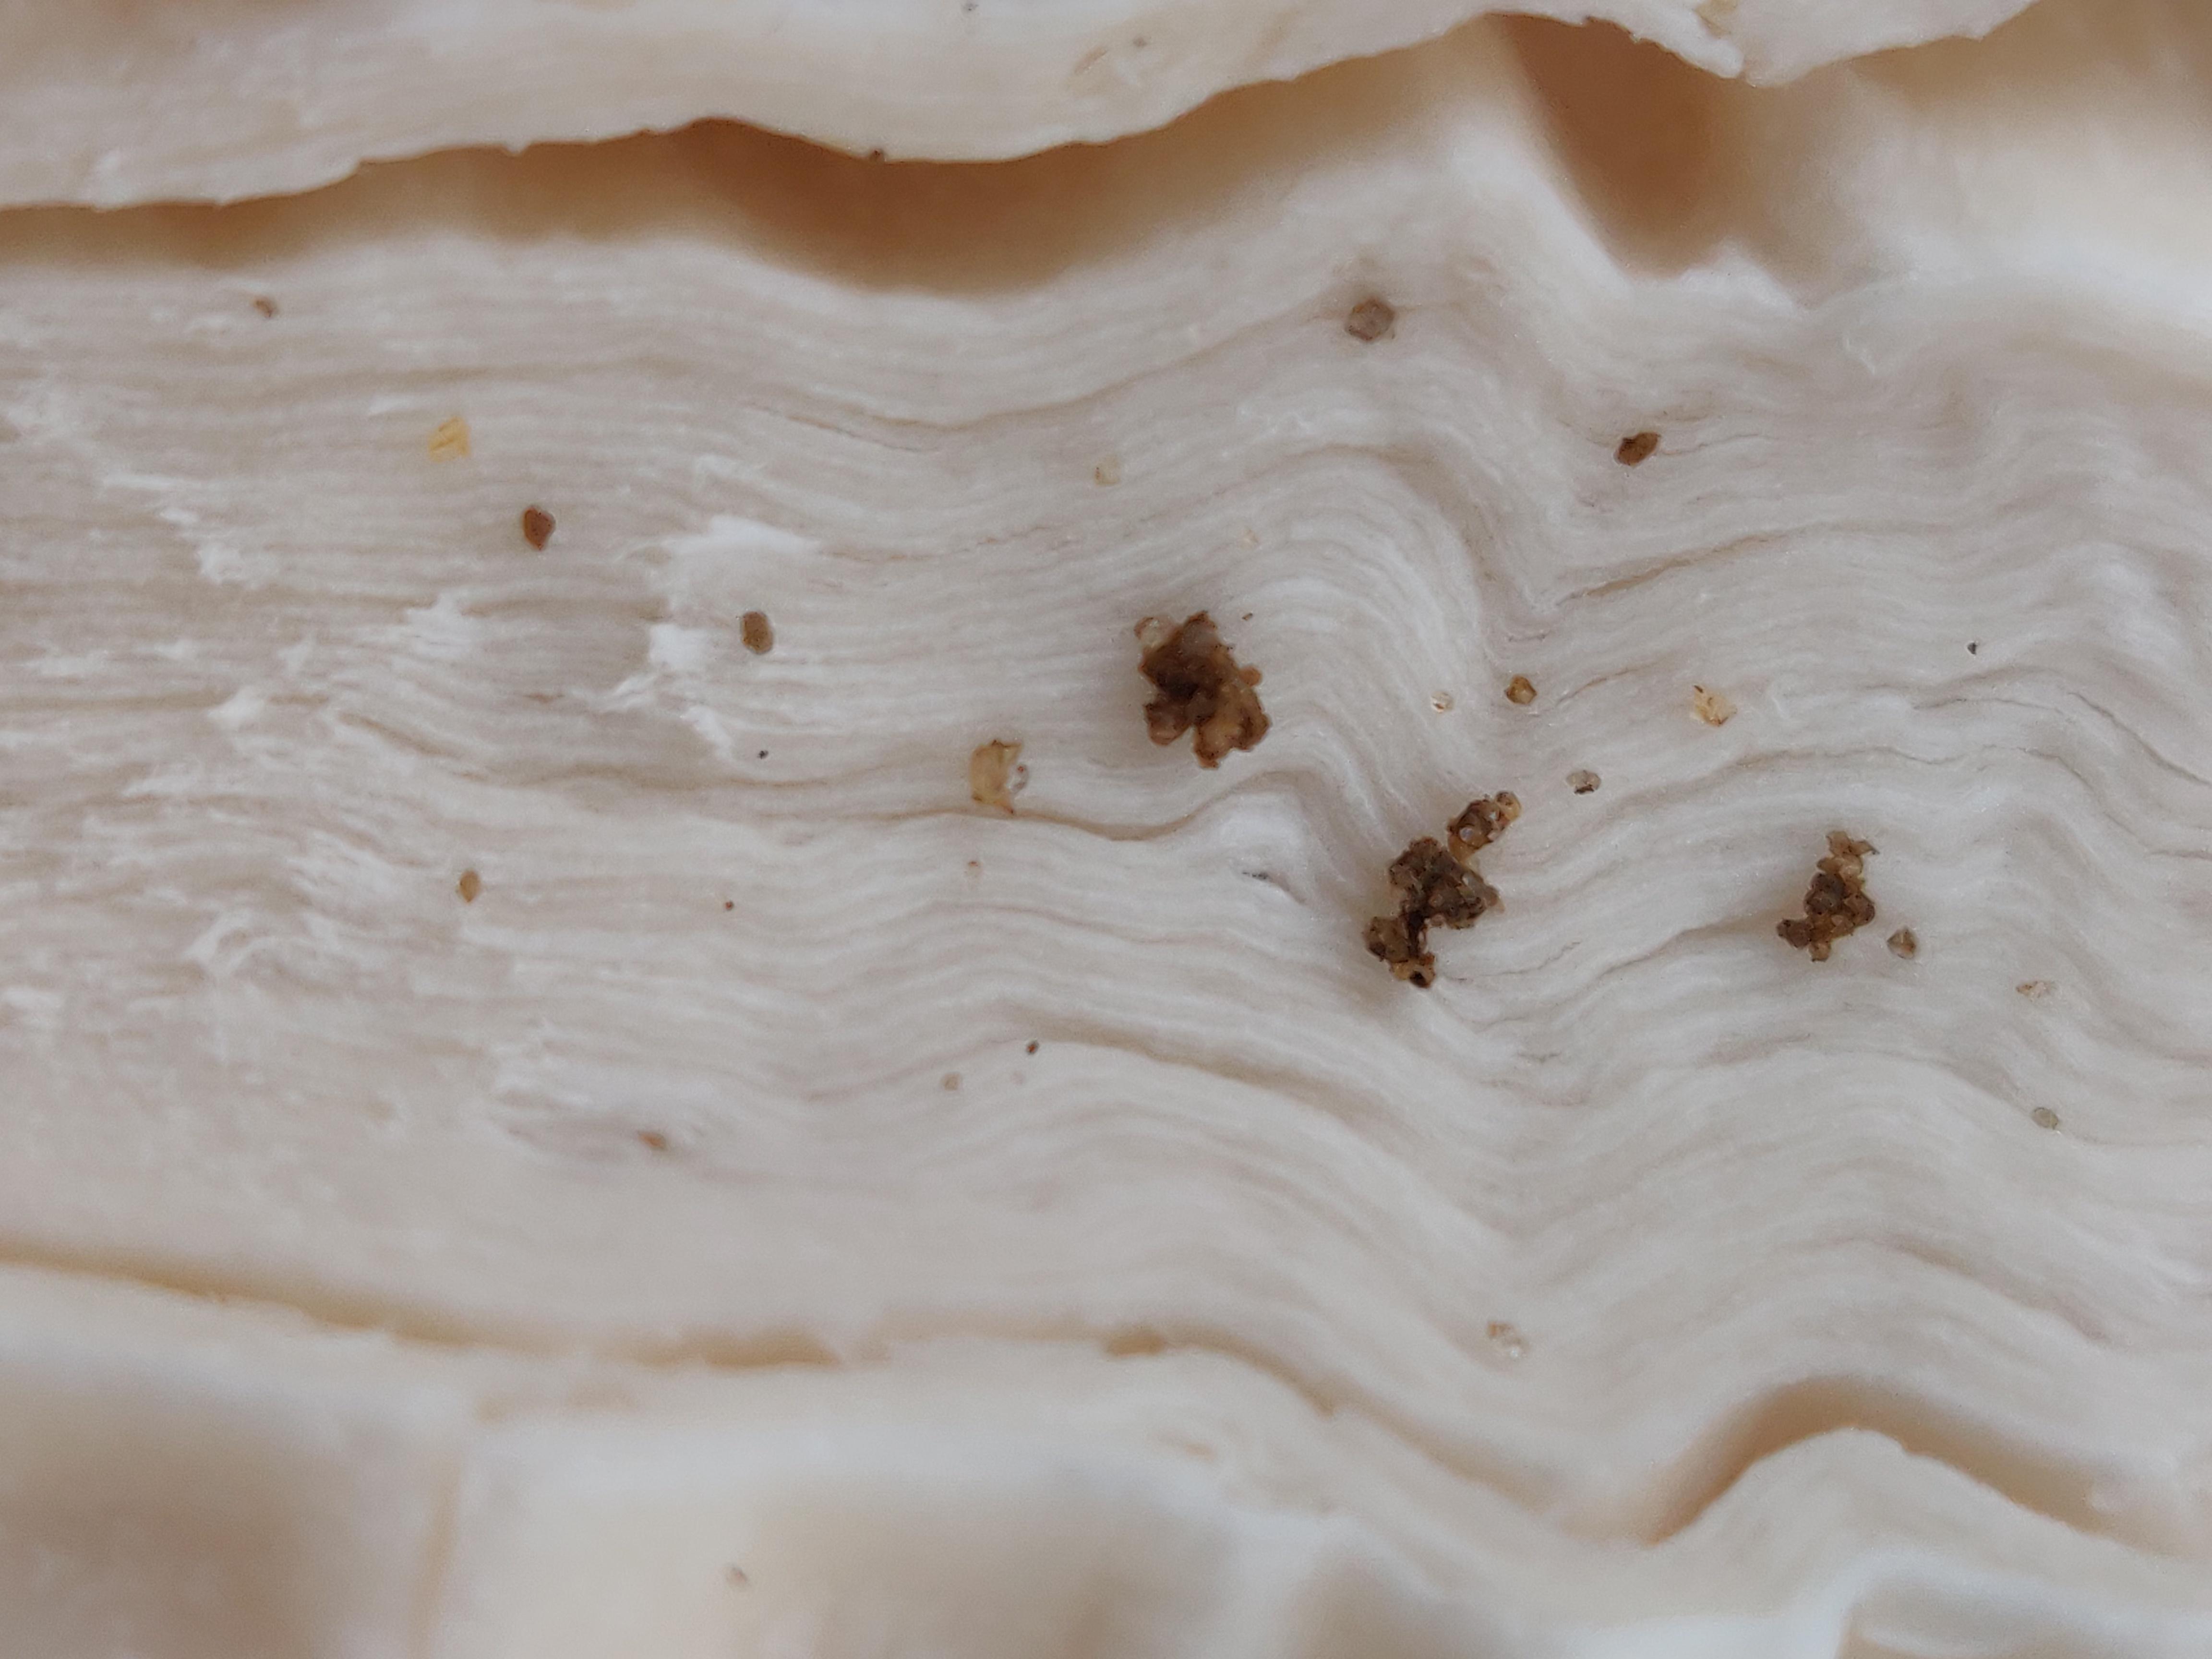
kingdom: Fungi
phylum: Basidiomycota
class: Agaricomycetes
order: Agaricales
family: Agaricaceae
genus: Coprinus
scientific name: Coprinus comatus
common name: stor parykhat
